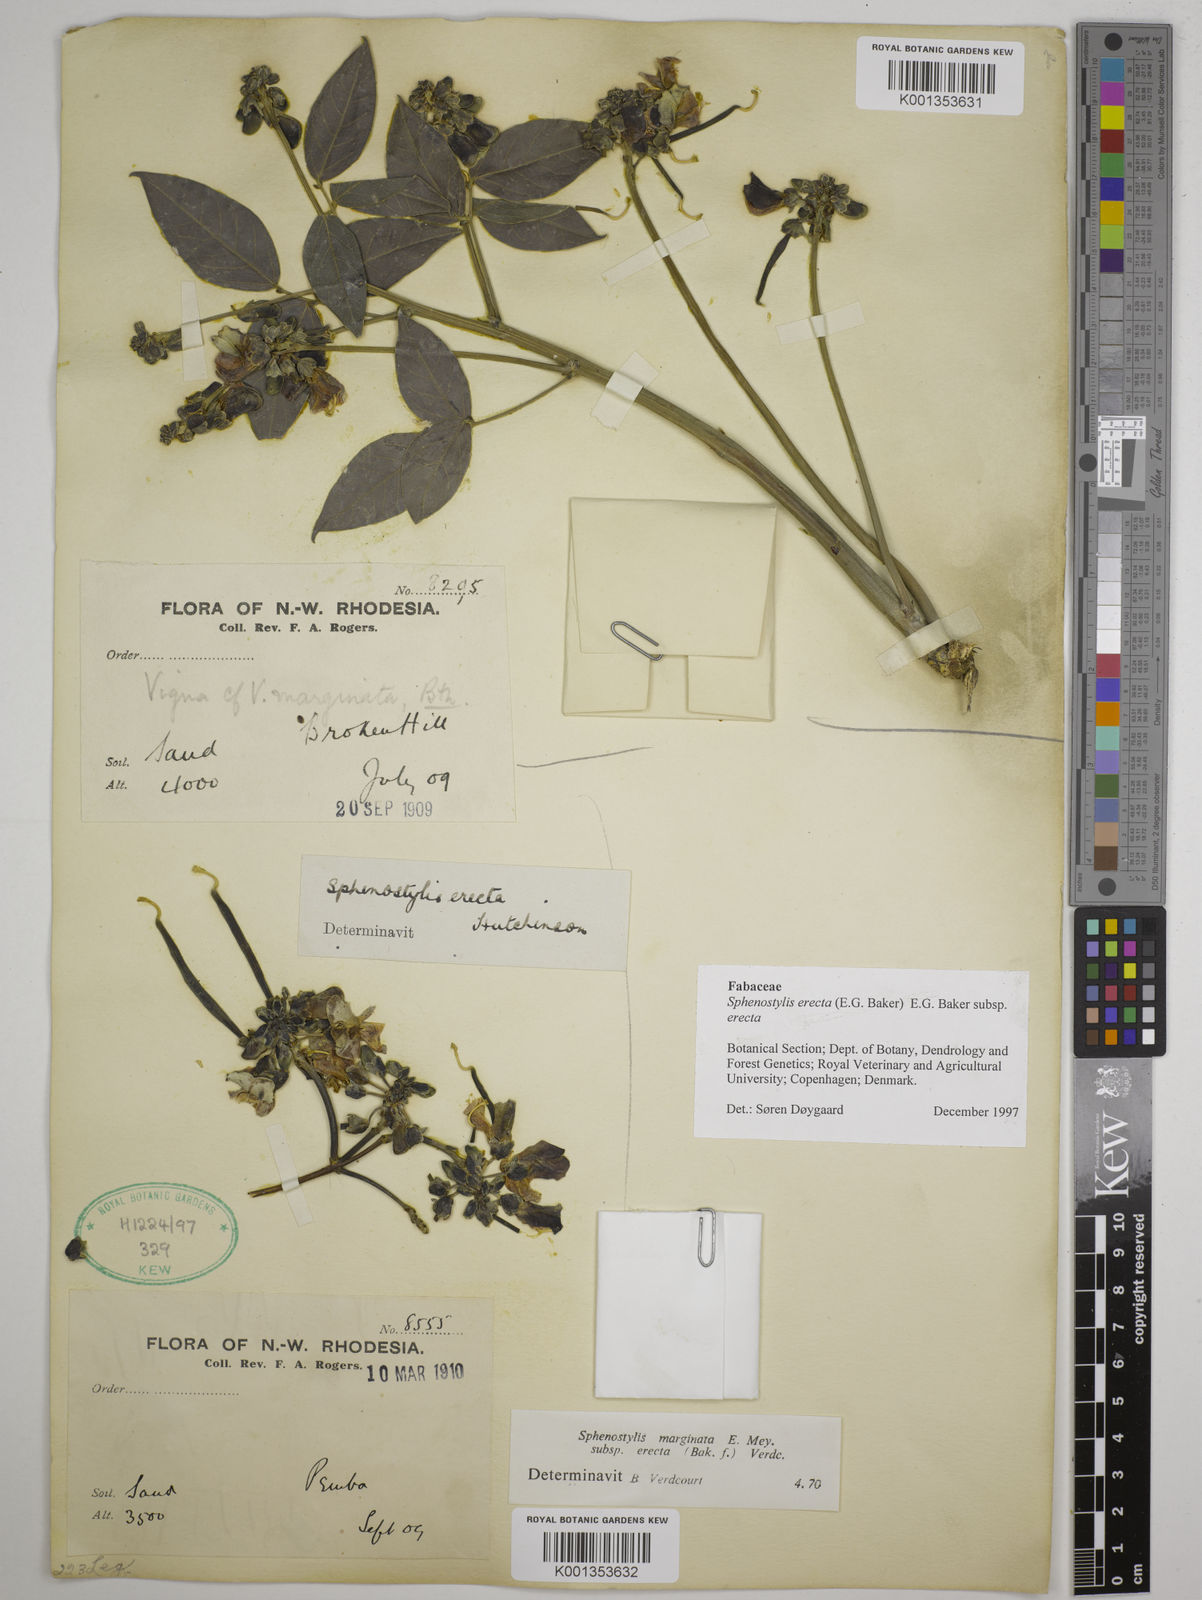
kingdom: Plantae
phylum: Tracheophyta
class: Magnoliopsida
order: Fabales
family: Fabaceae
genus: Sphenostylis
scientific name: Sphenostylis erecta
